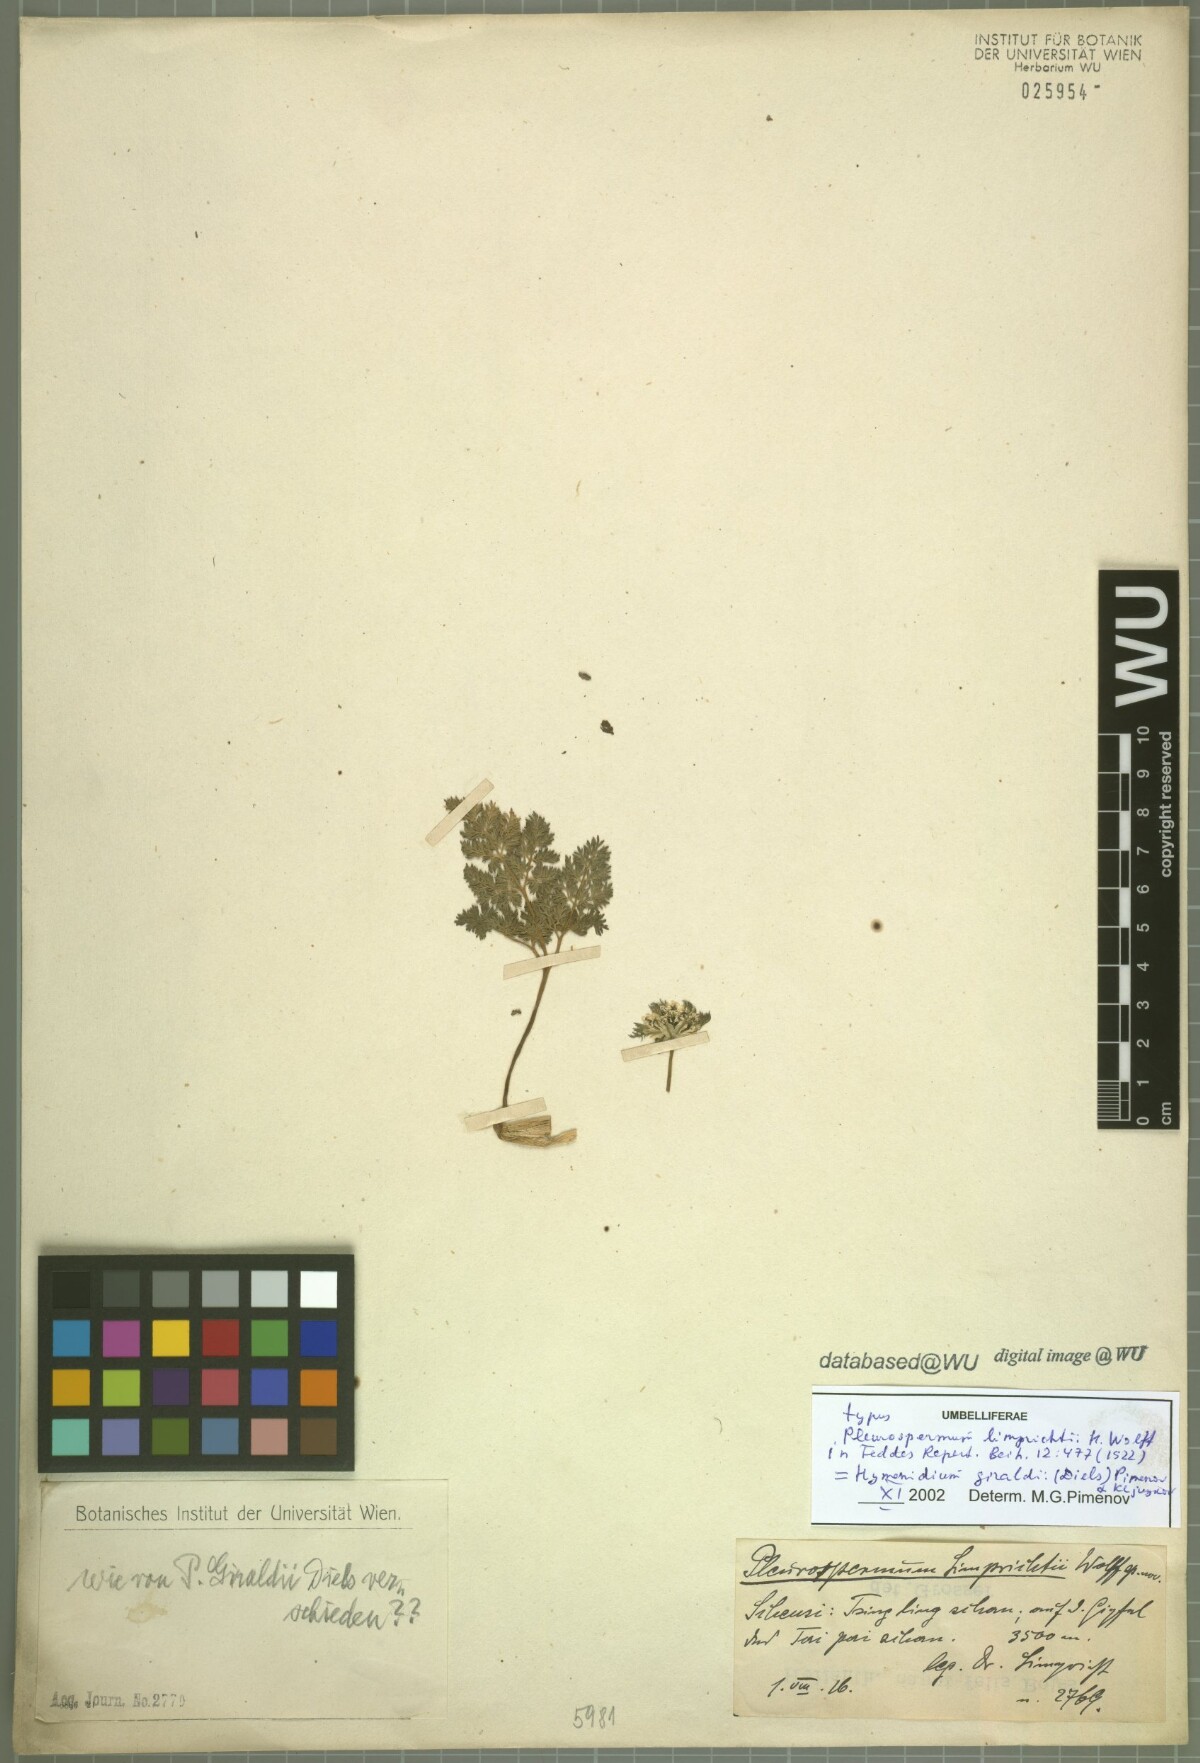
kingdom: Plantae
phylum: Tracheophyta
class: Magnoliopsida
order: Apiales
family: Apiaceae
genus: Hymenidium
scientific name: Hymenidium giraldii
